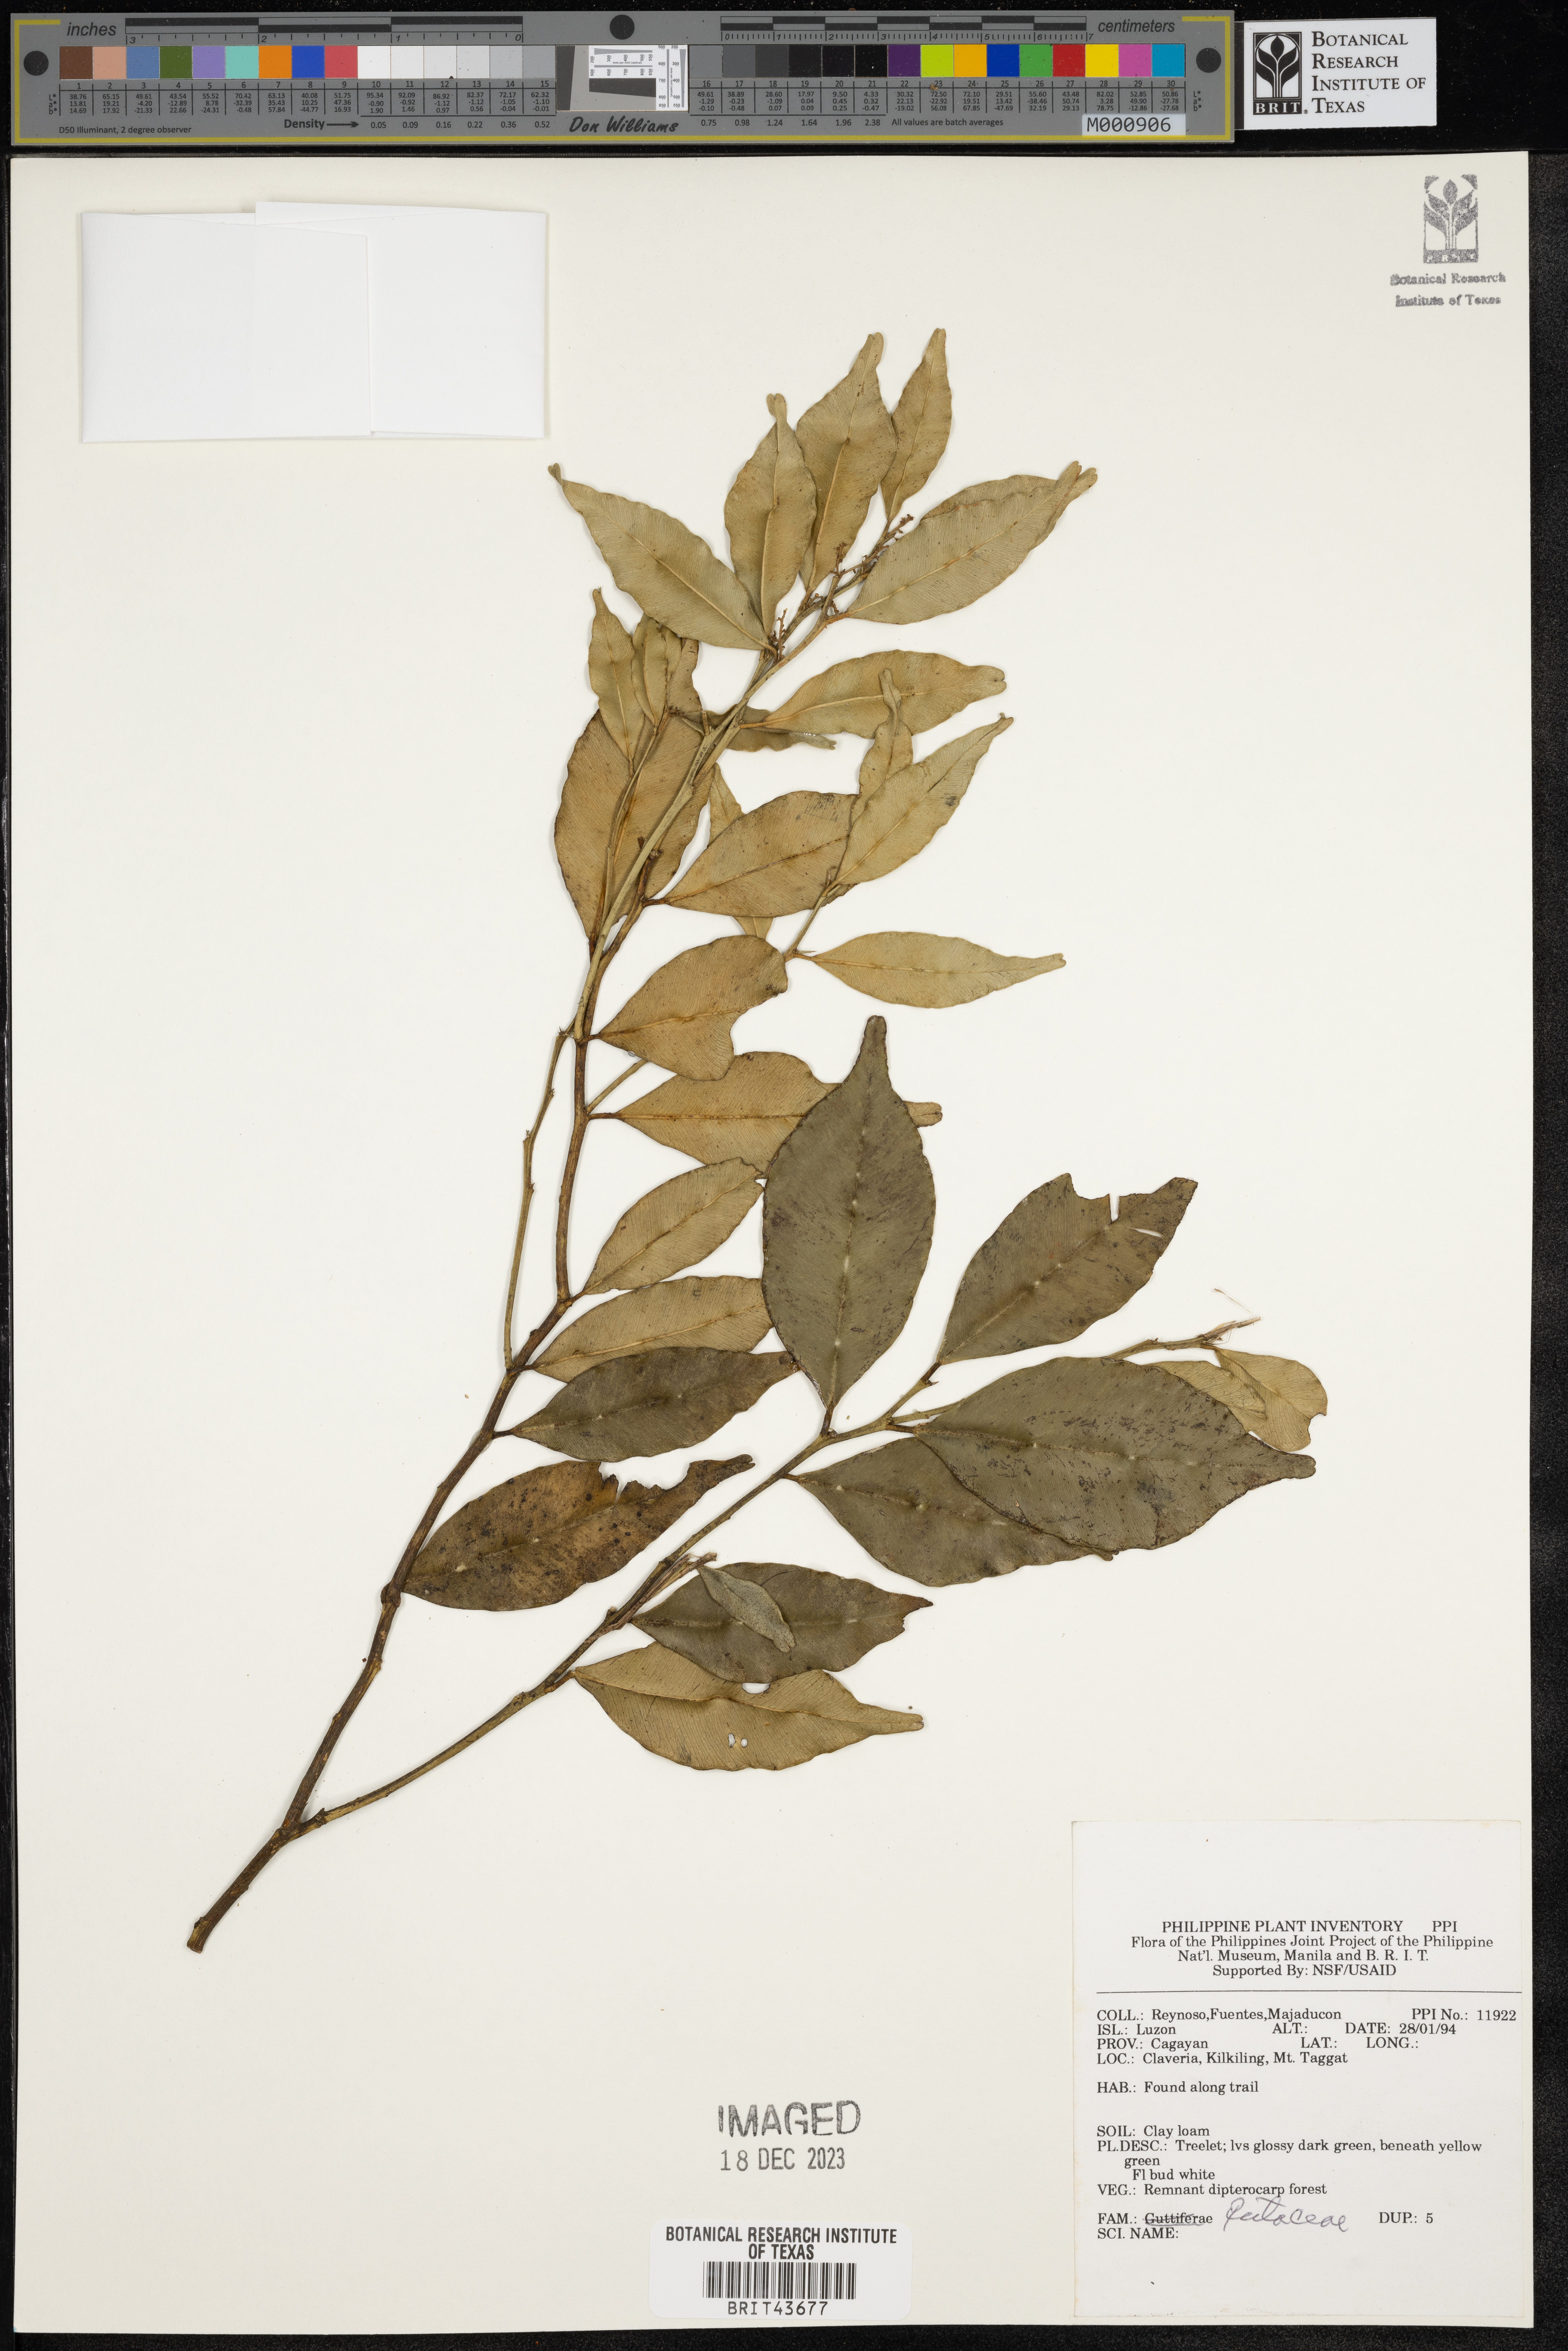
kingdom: Plantae
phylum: Tracheophyta
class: Magnoliopsida
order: Sapindales
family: Rutaceae
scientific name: Rutaceae
